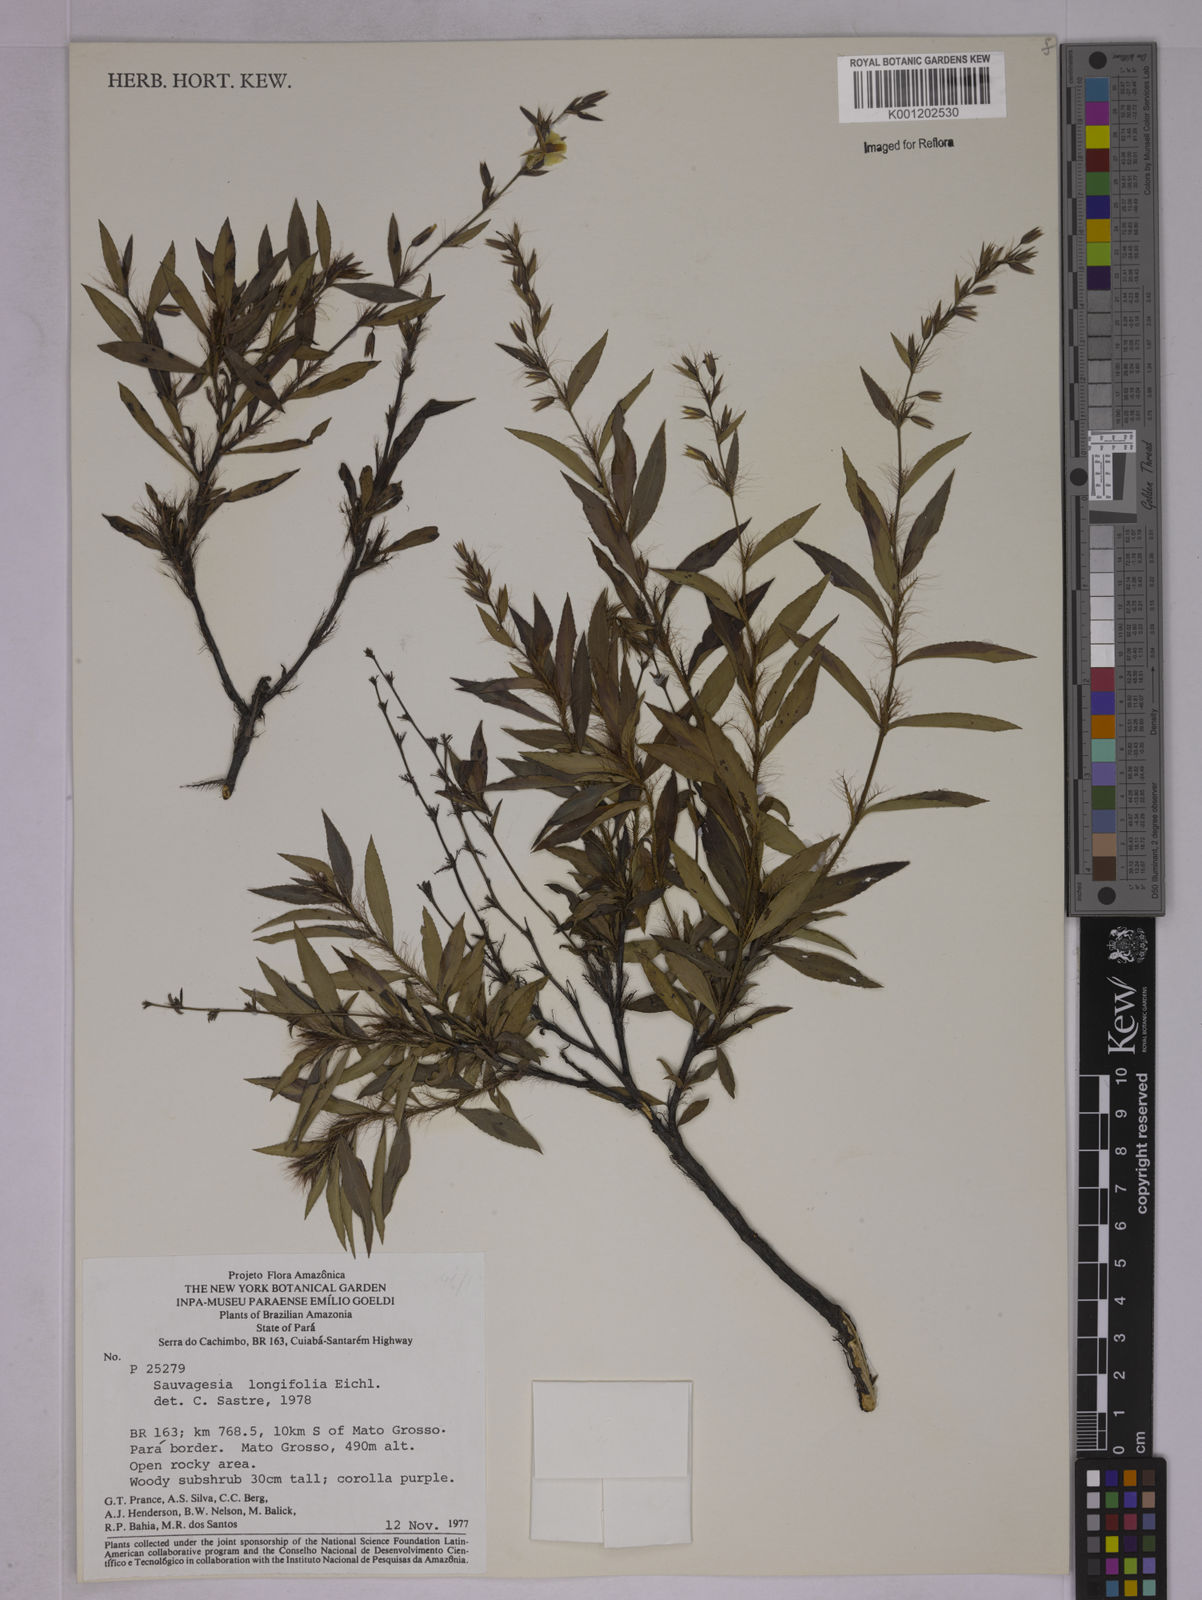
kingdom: Plantae
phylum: Tracheophyta
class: Magnoliopsida
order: Malpighiales
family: Ochnaceae
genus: Sauvagesia
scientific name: Sauvagesia longifolia
